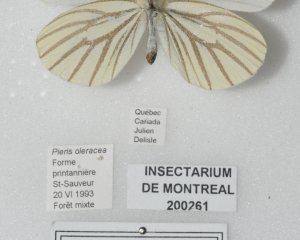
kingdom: Animalia
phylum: Arthropoda
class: Insecta
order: Lepidoptera
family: Pieridae
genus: Pieris
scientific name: Pieris oleracea
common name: Mustard White
